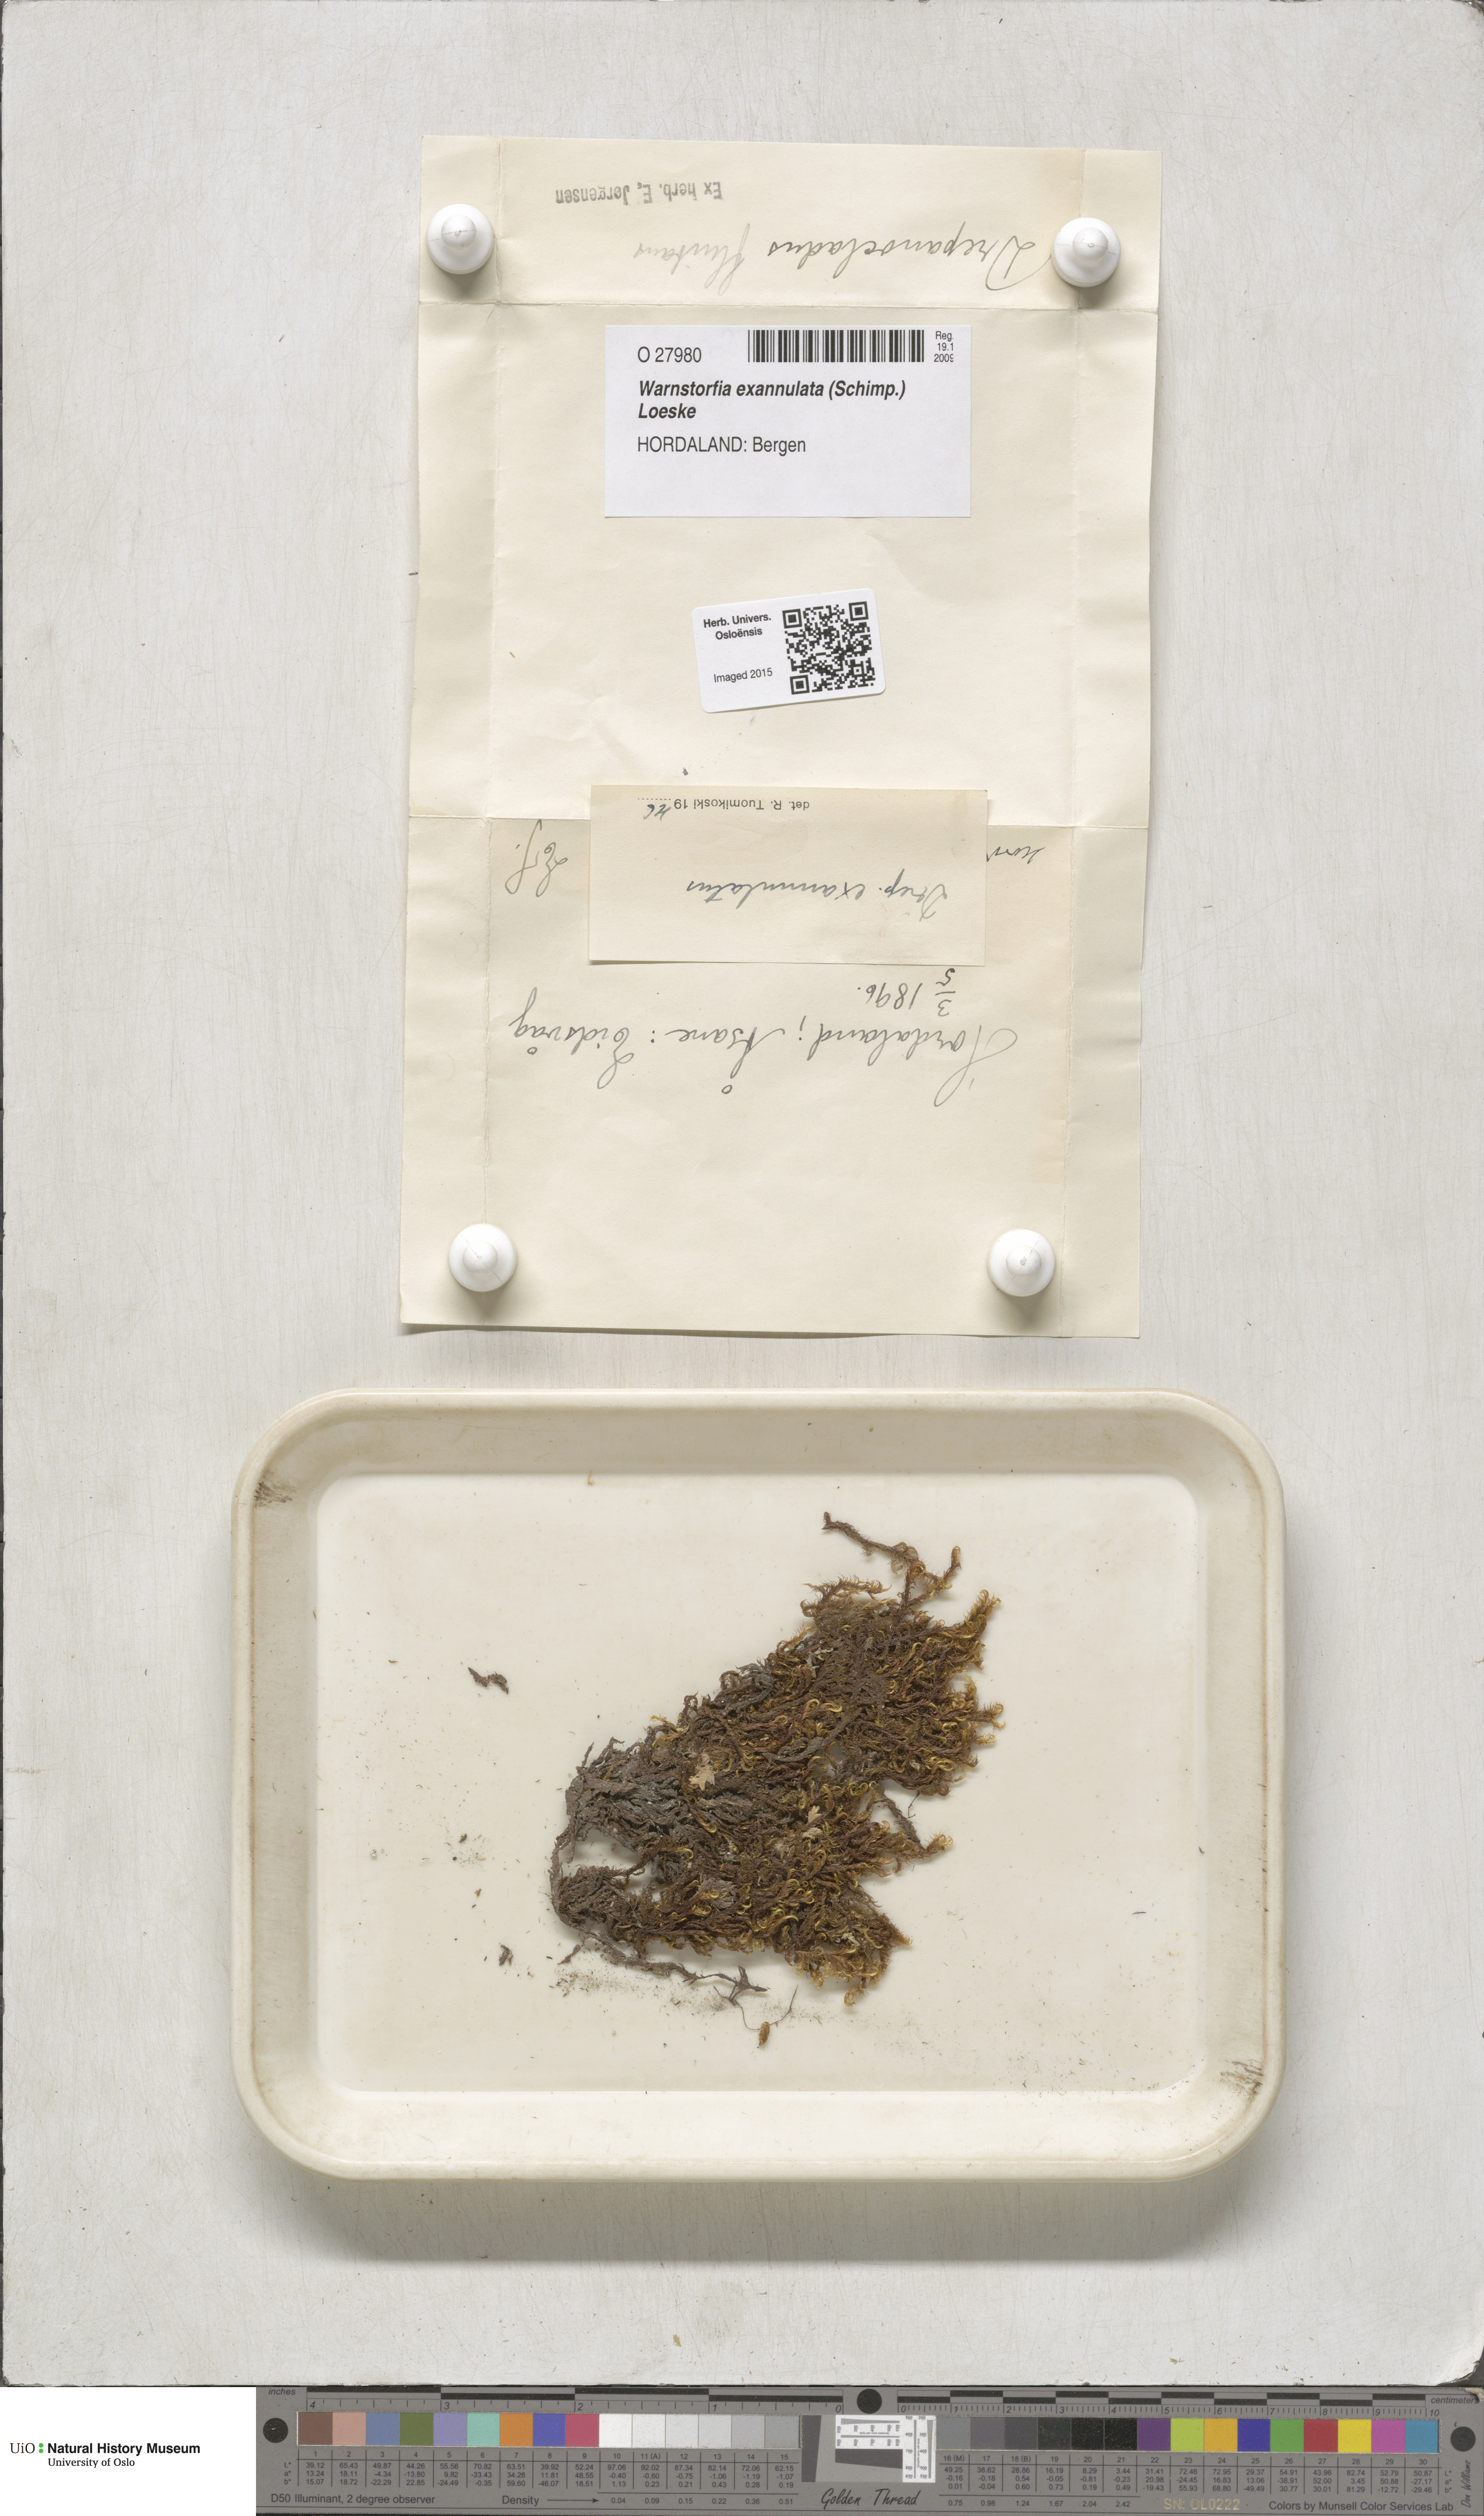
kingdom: Plantae
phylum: Bryophyta
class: Bryopsida
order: Hypnales
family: Calliergonaceae
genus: Sarmentypnum
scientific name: Sarmentypnum exannulatum
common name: Ringless spoon moss
